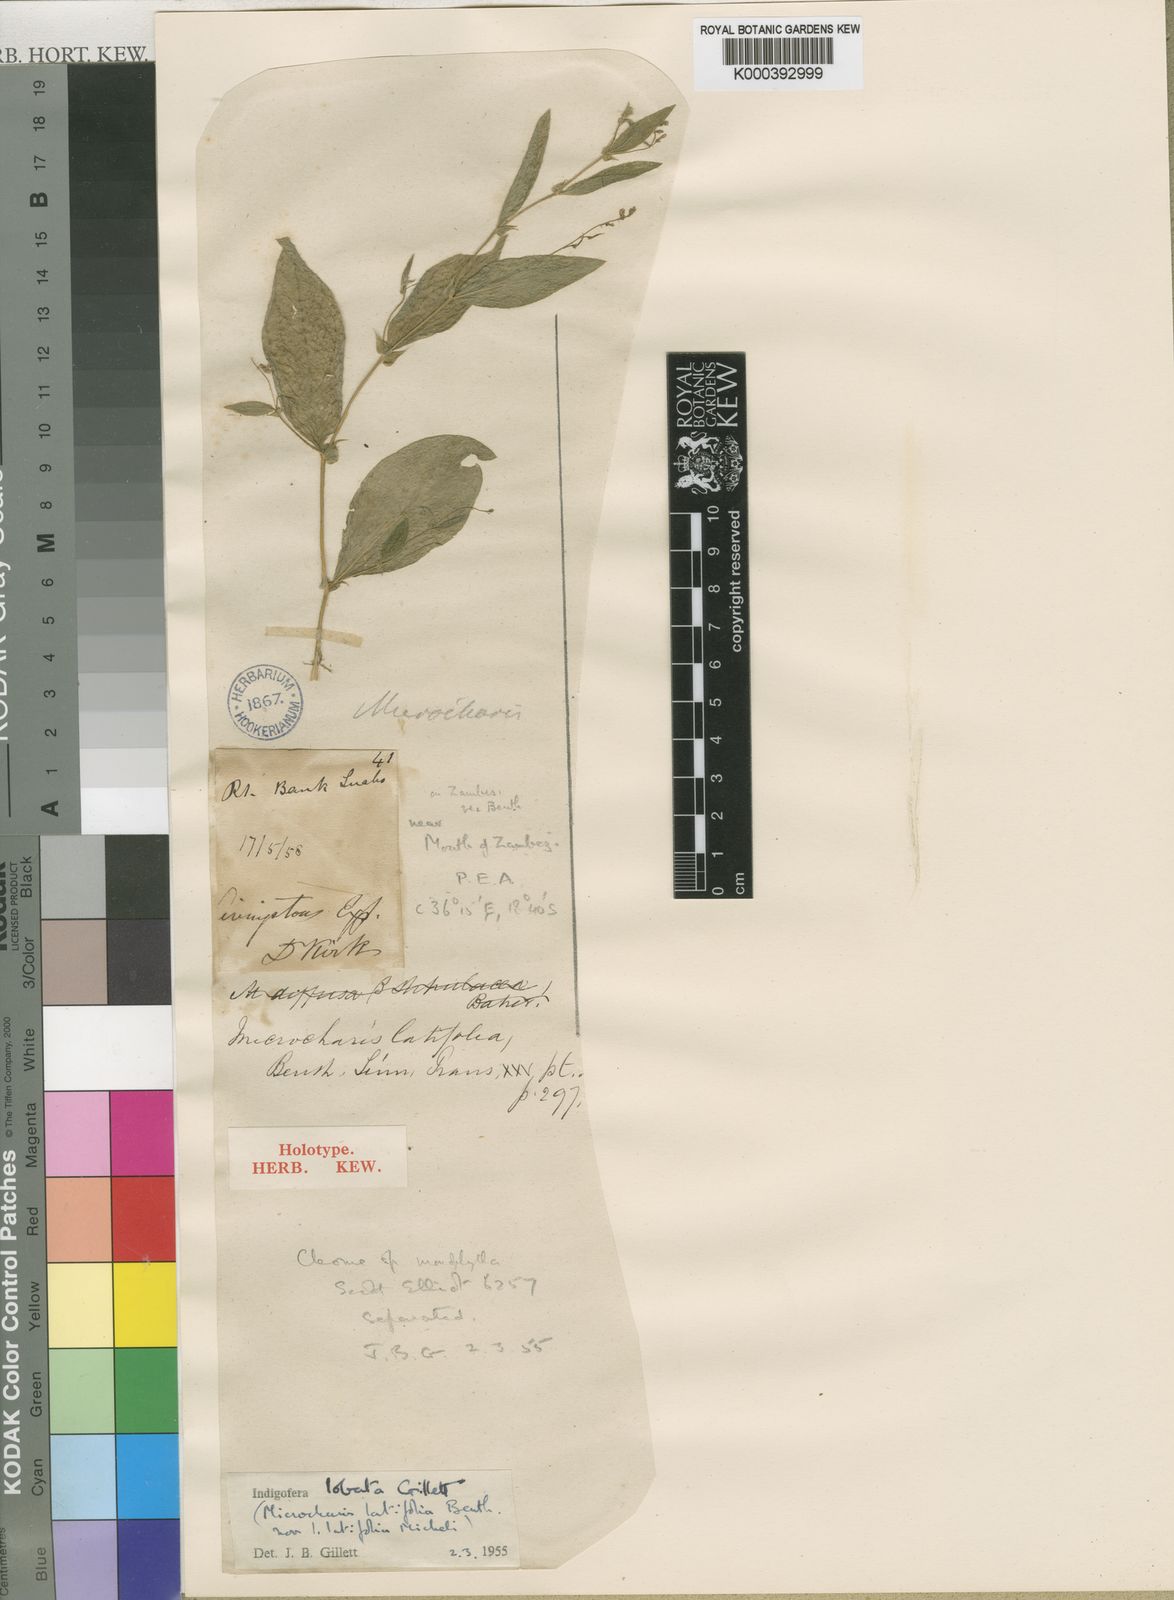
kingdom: Plantae
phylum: Tracheophyta
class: Magnoliopsida
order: Fabales
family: Fabaceae
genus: Indigofera
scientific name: Indigofera latifolia
